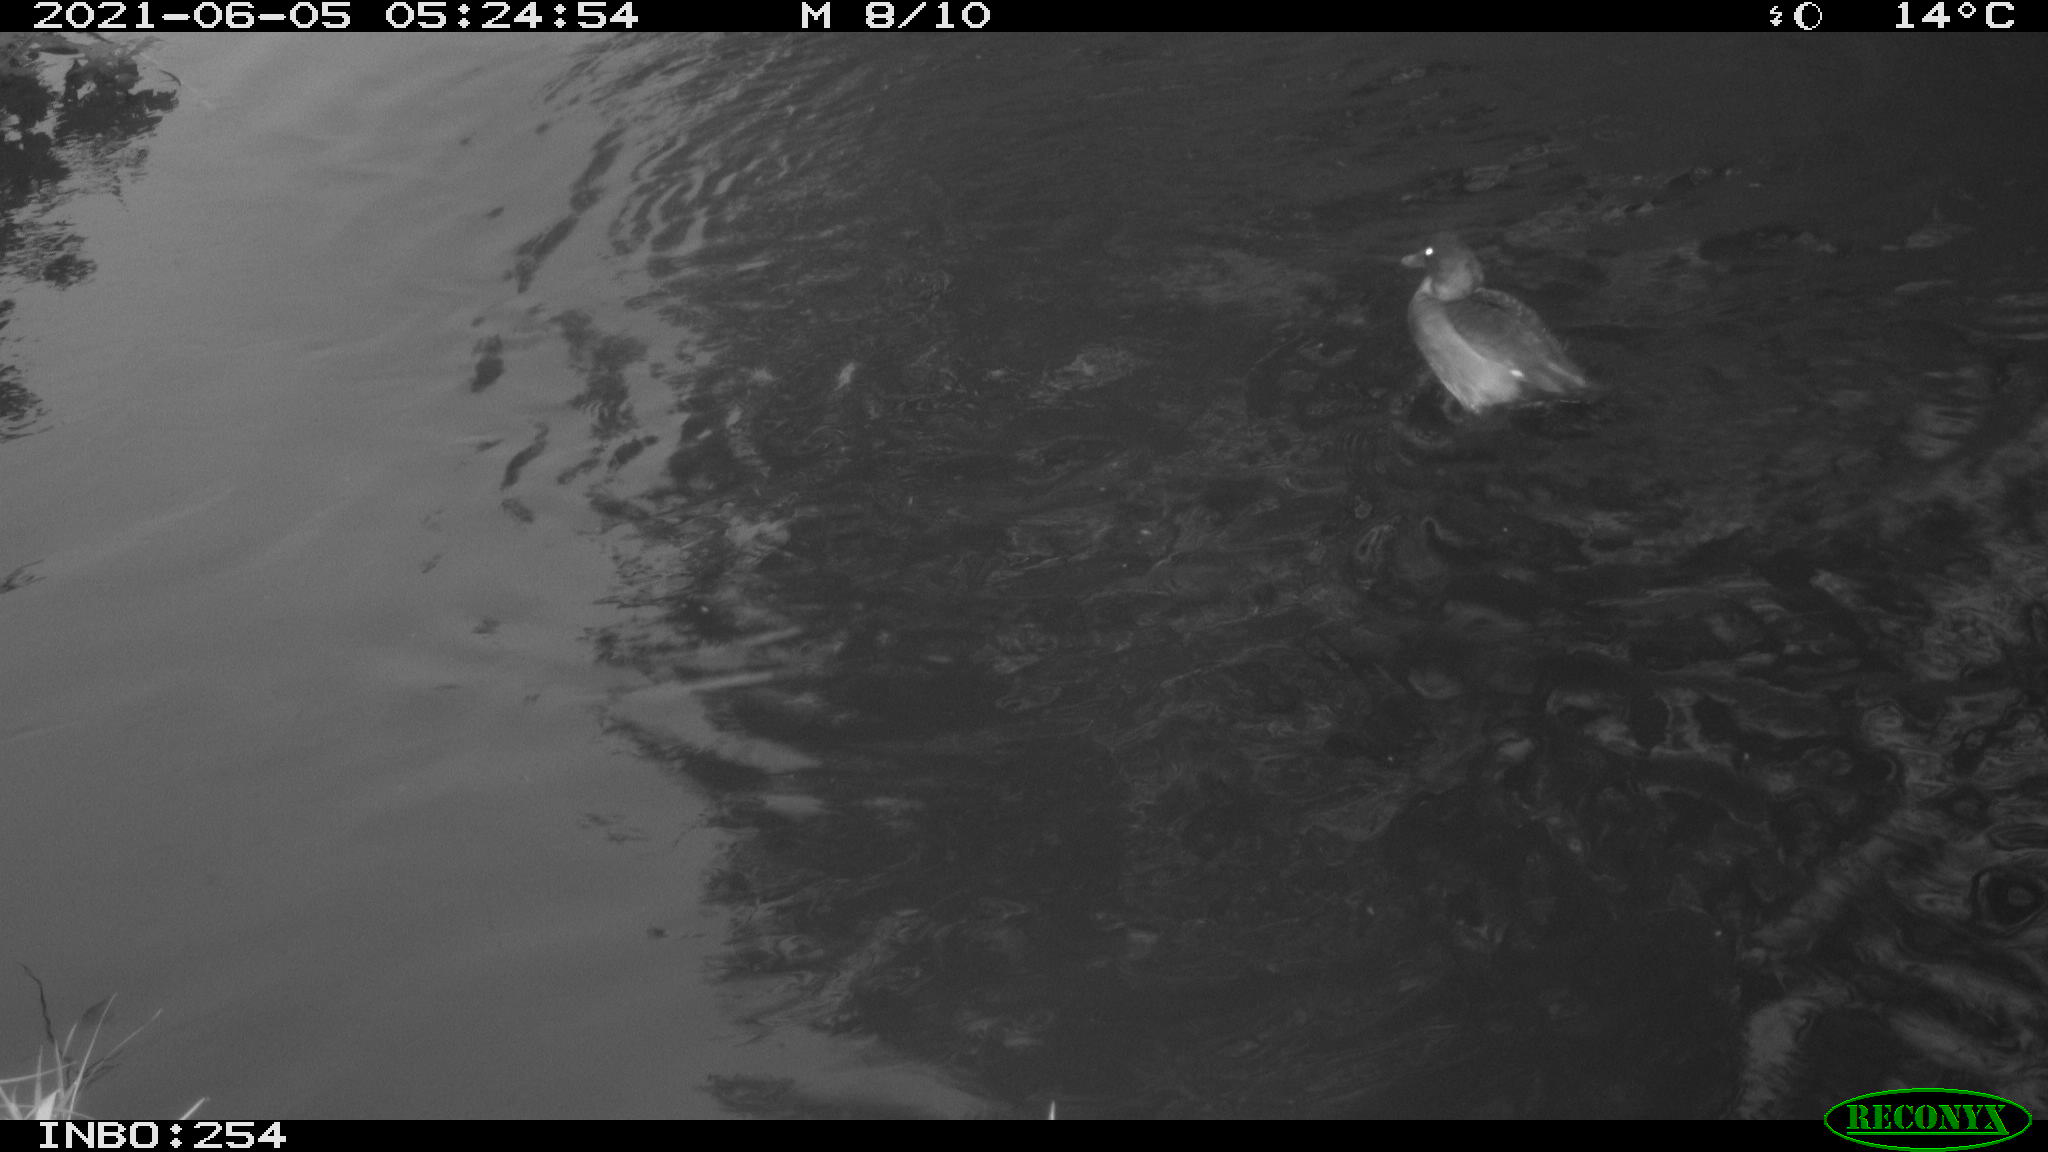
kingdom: Animalia
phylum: Chordata
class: Aves
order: Anseriformes
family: Anatidae
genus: Anas
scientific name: Anas crecca
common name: Eurasian teal
